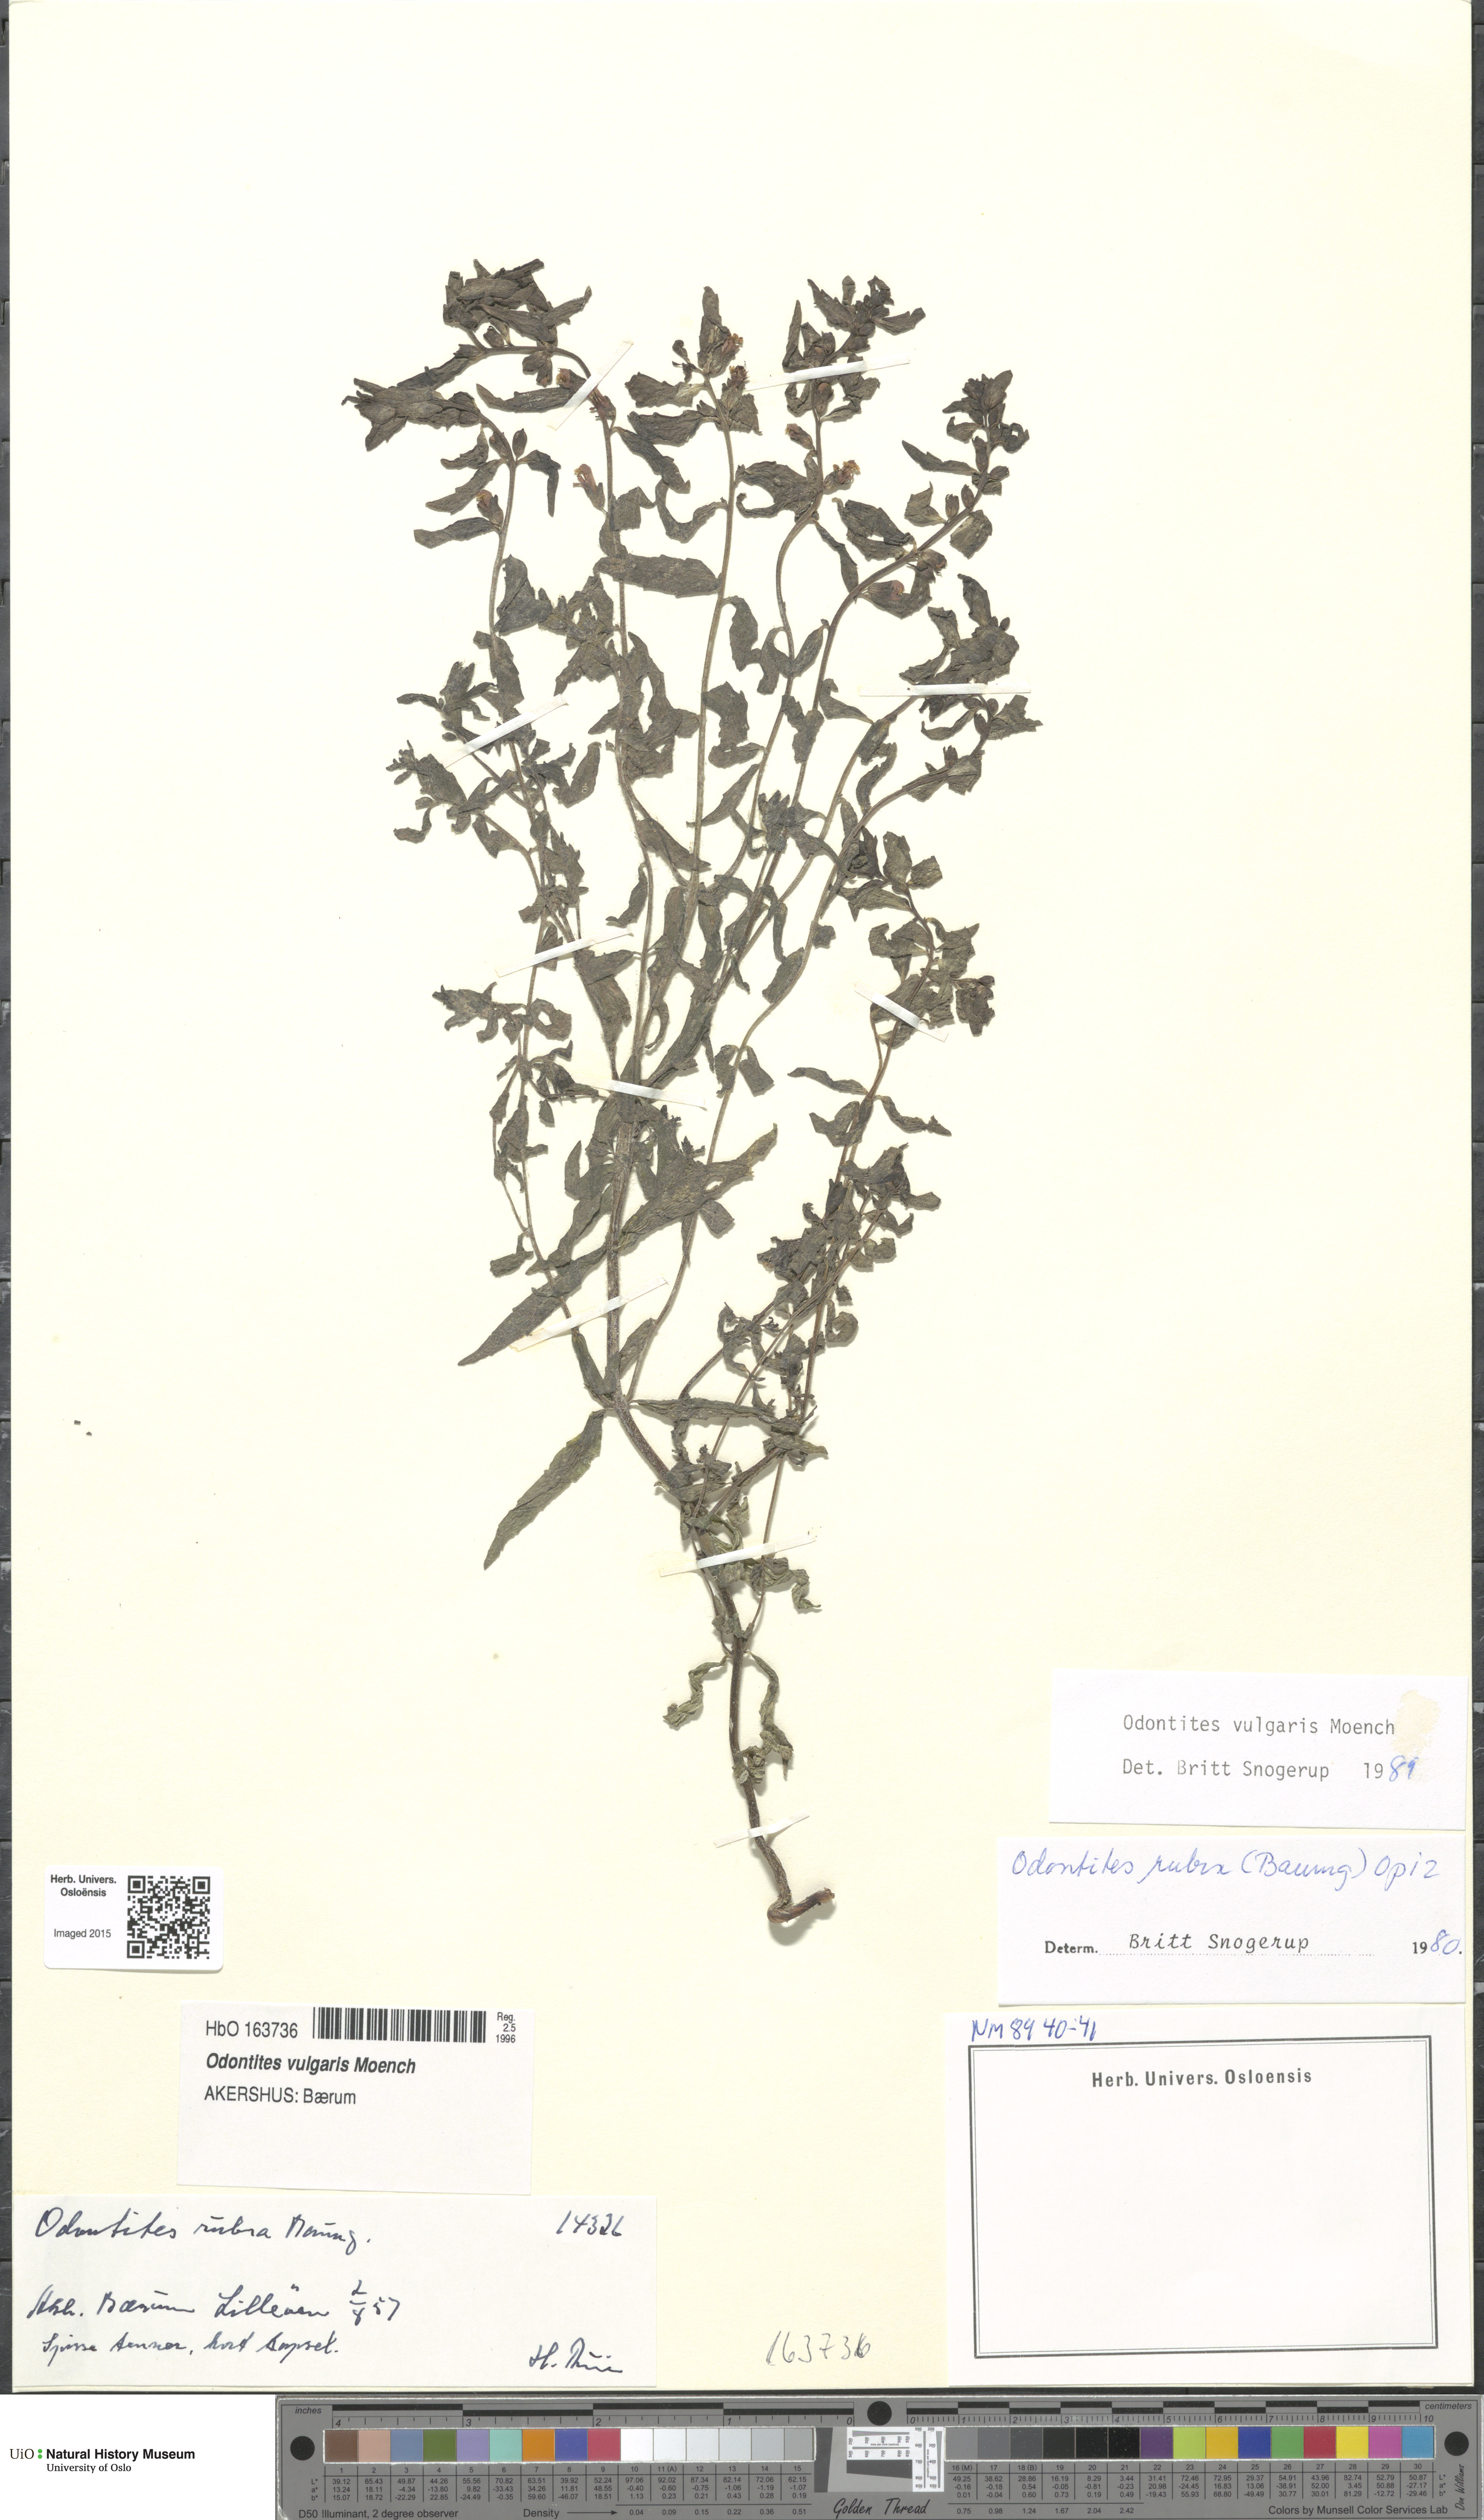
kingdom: Plantae
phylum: Tracheophyta
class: Magnoliopsida
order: Lamiales
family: Orobanchaceae
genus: Odontites
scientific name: Odontites vulgaris
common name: Broomrape
